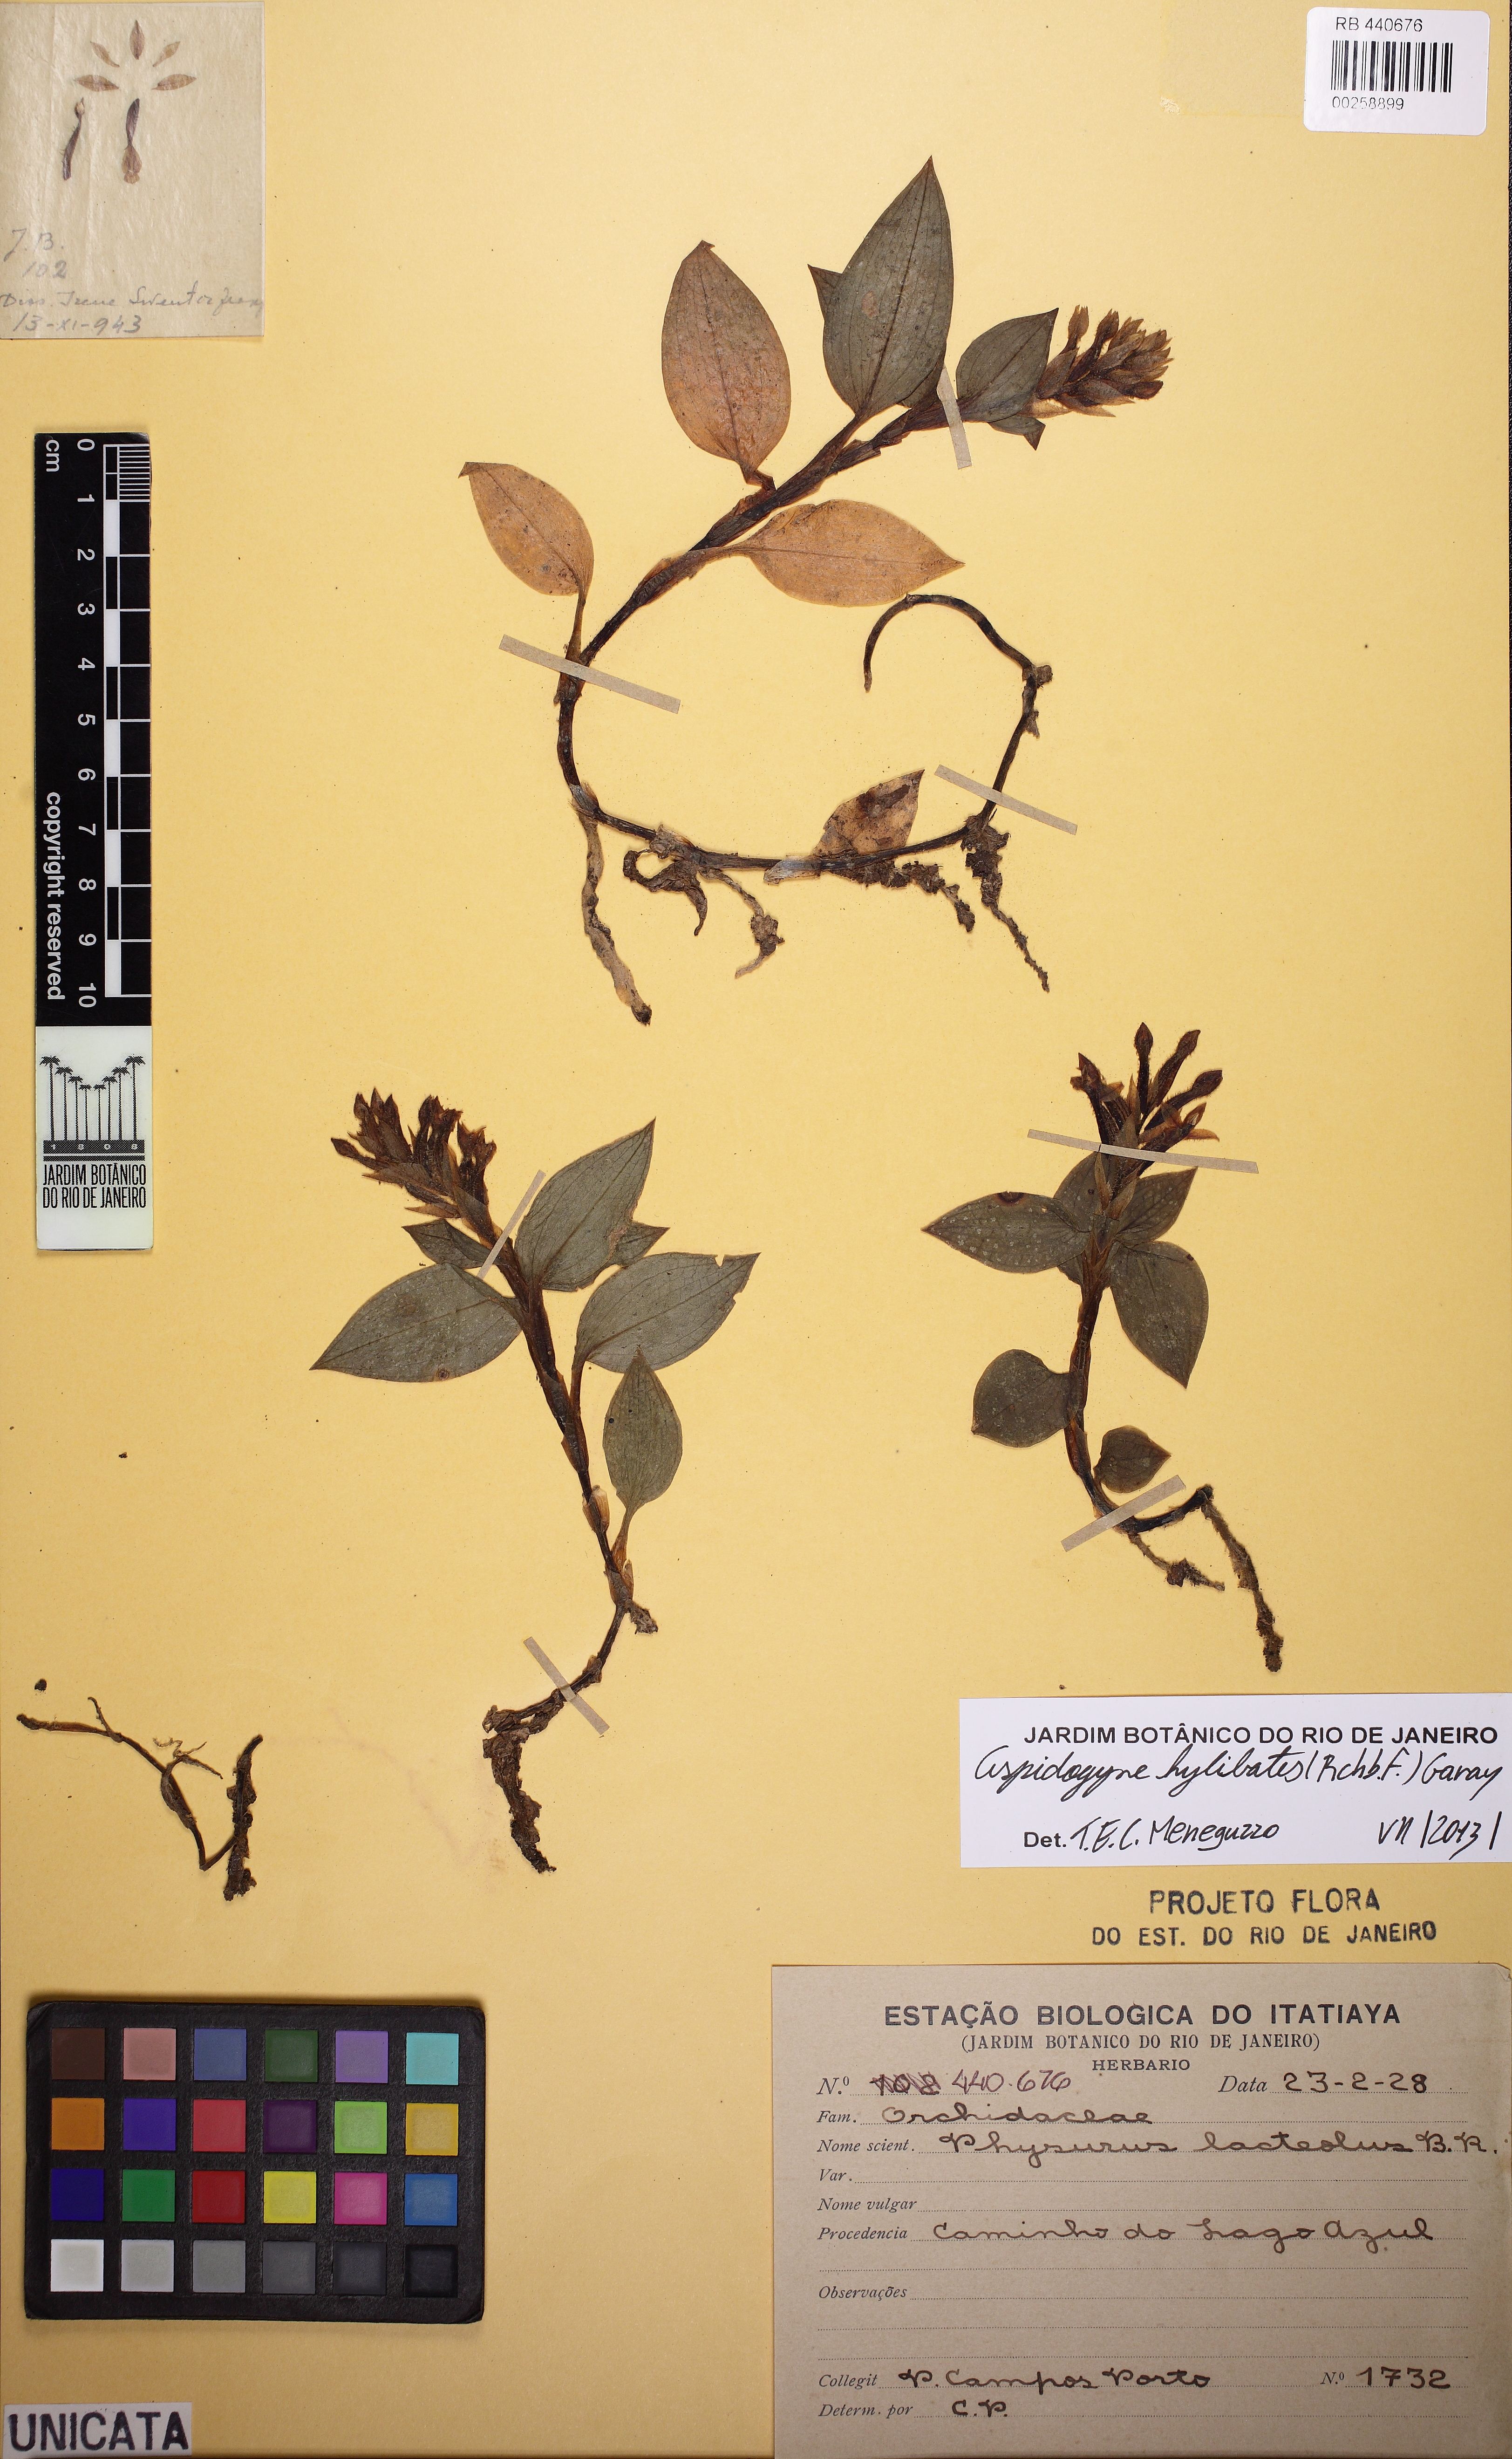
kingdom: Plantae
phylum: Tracheophyta
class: Liliopsida
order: Asparagales
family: Orchidaceae
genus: Aspidogyne
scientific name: Aspidogyne hylibates
